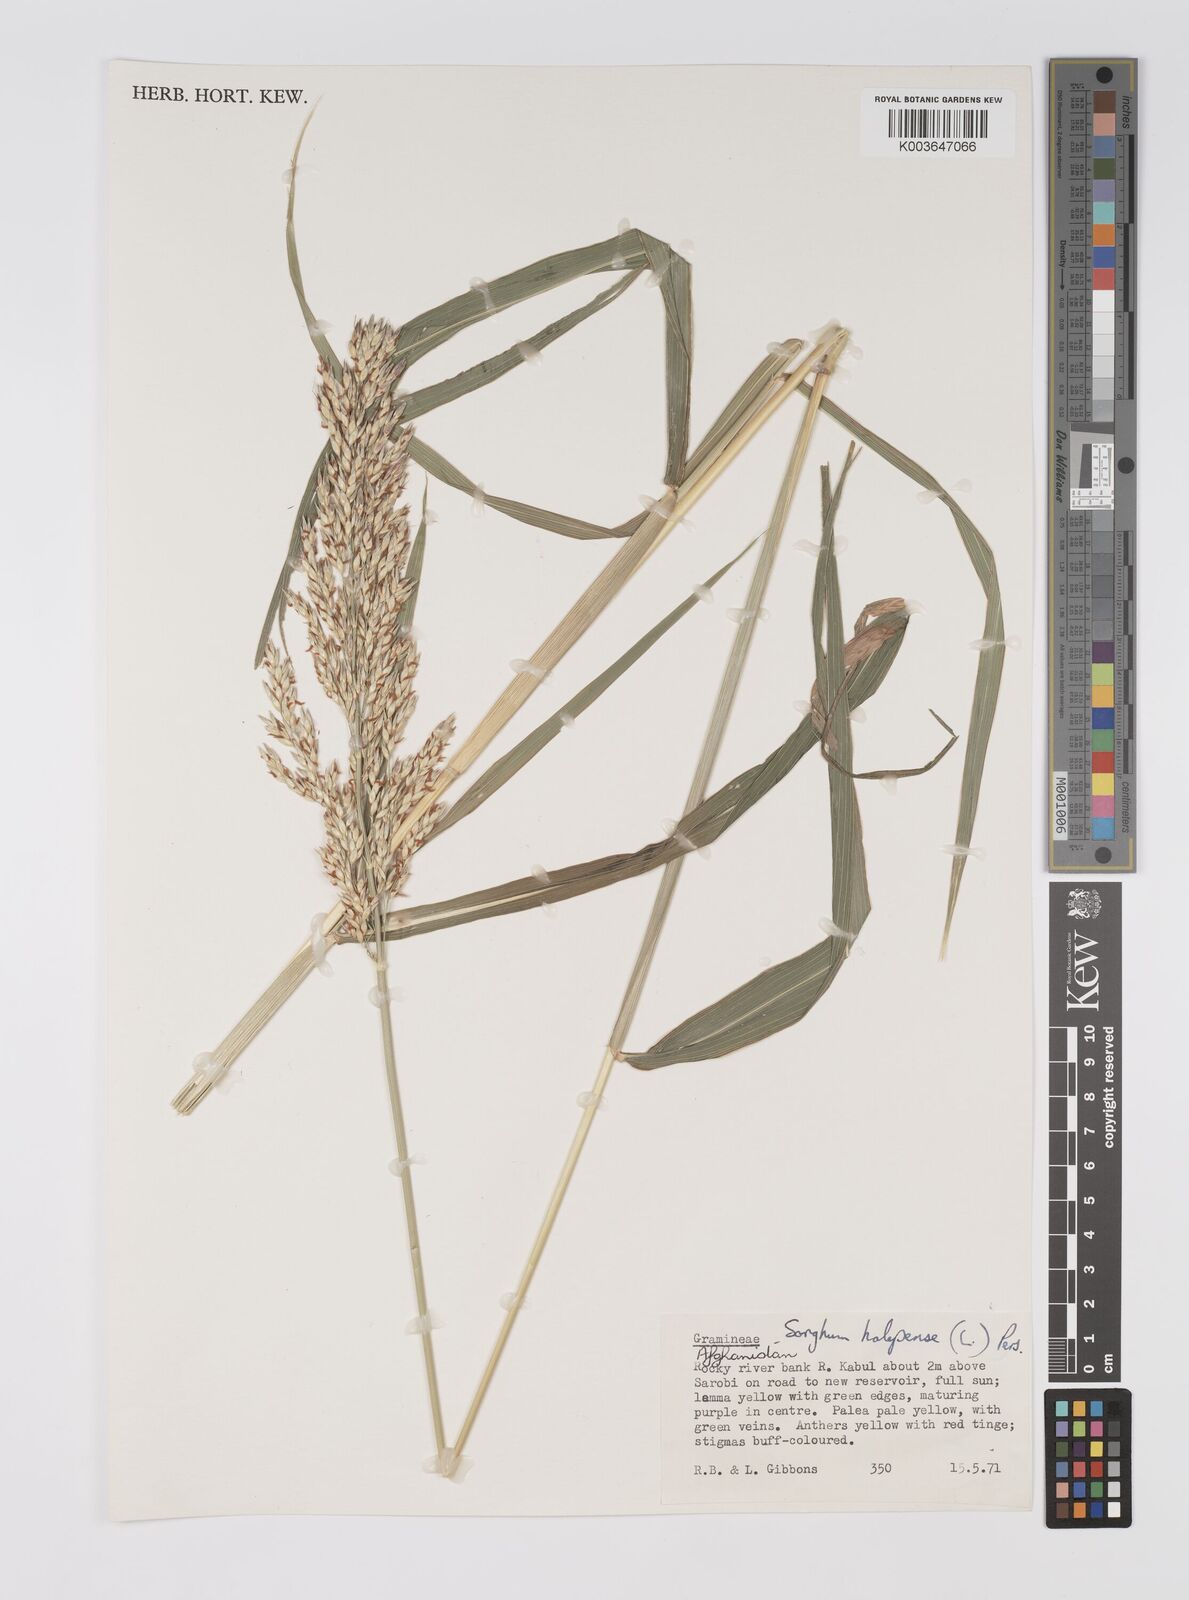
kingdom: Plantae
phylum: Tracheophyta
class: Liliopsida
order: Poales
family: Poaceae
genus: Sorghum
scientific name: Sorghum halepense
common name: Johnson-grass
